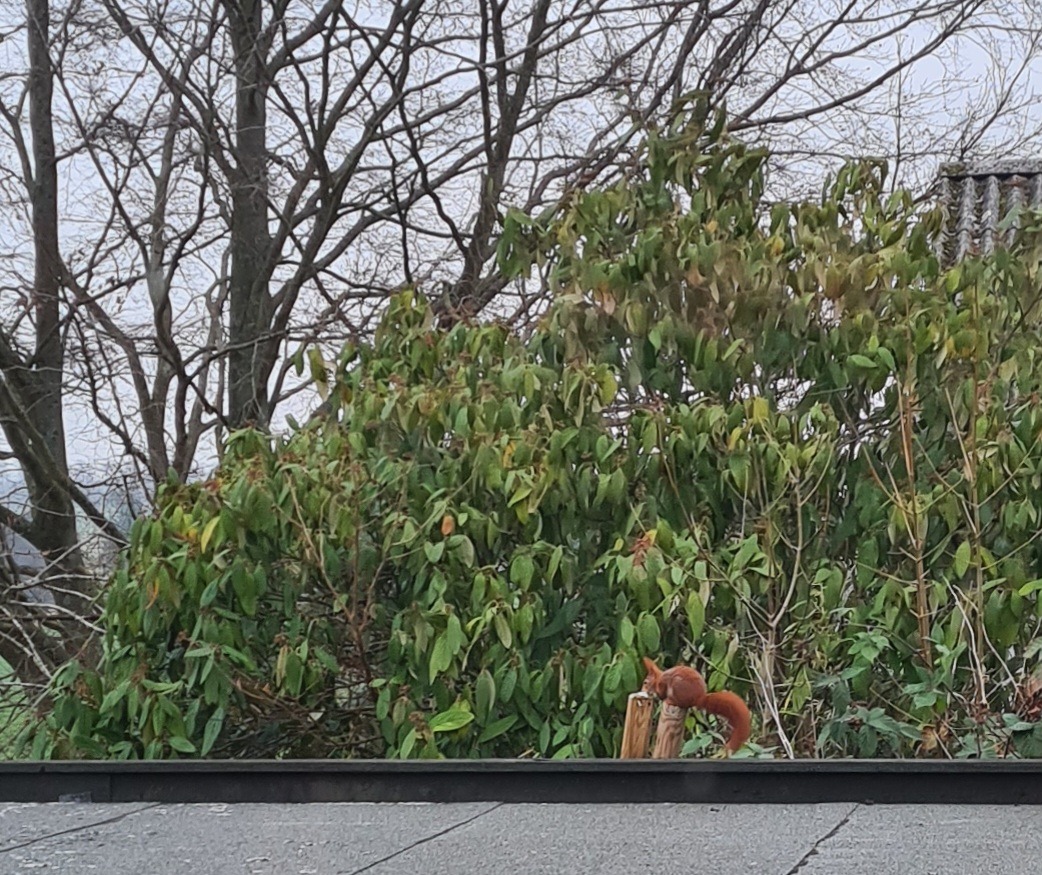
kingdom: Animalia
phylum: Chordata
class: Mammalia
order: Rodentia
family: Sciuridae
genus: Sciurus
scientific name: Sciurus vulgaris
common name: Egern
